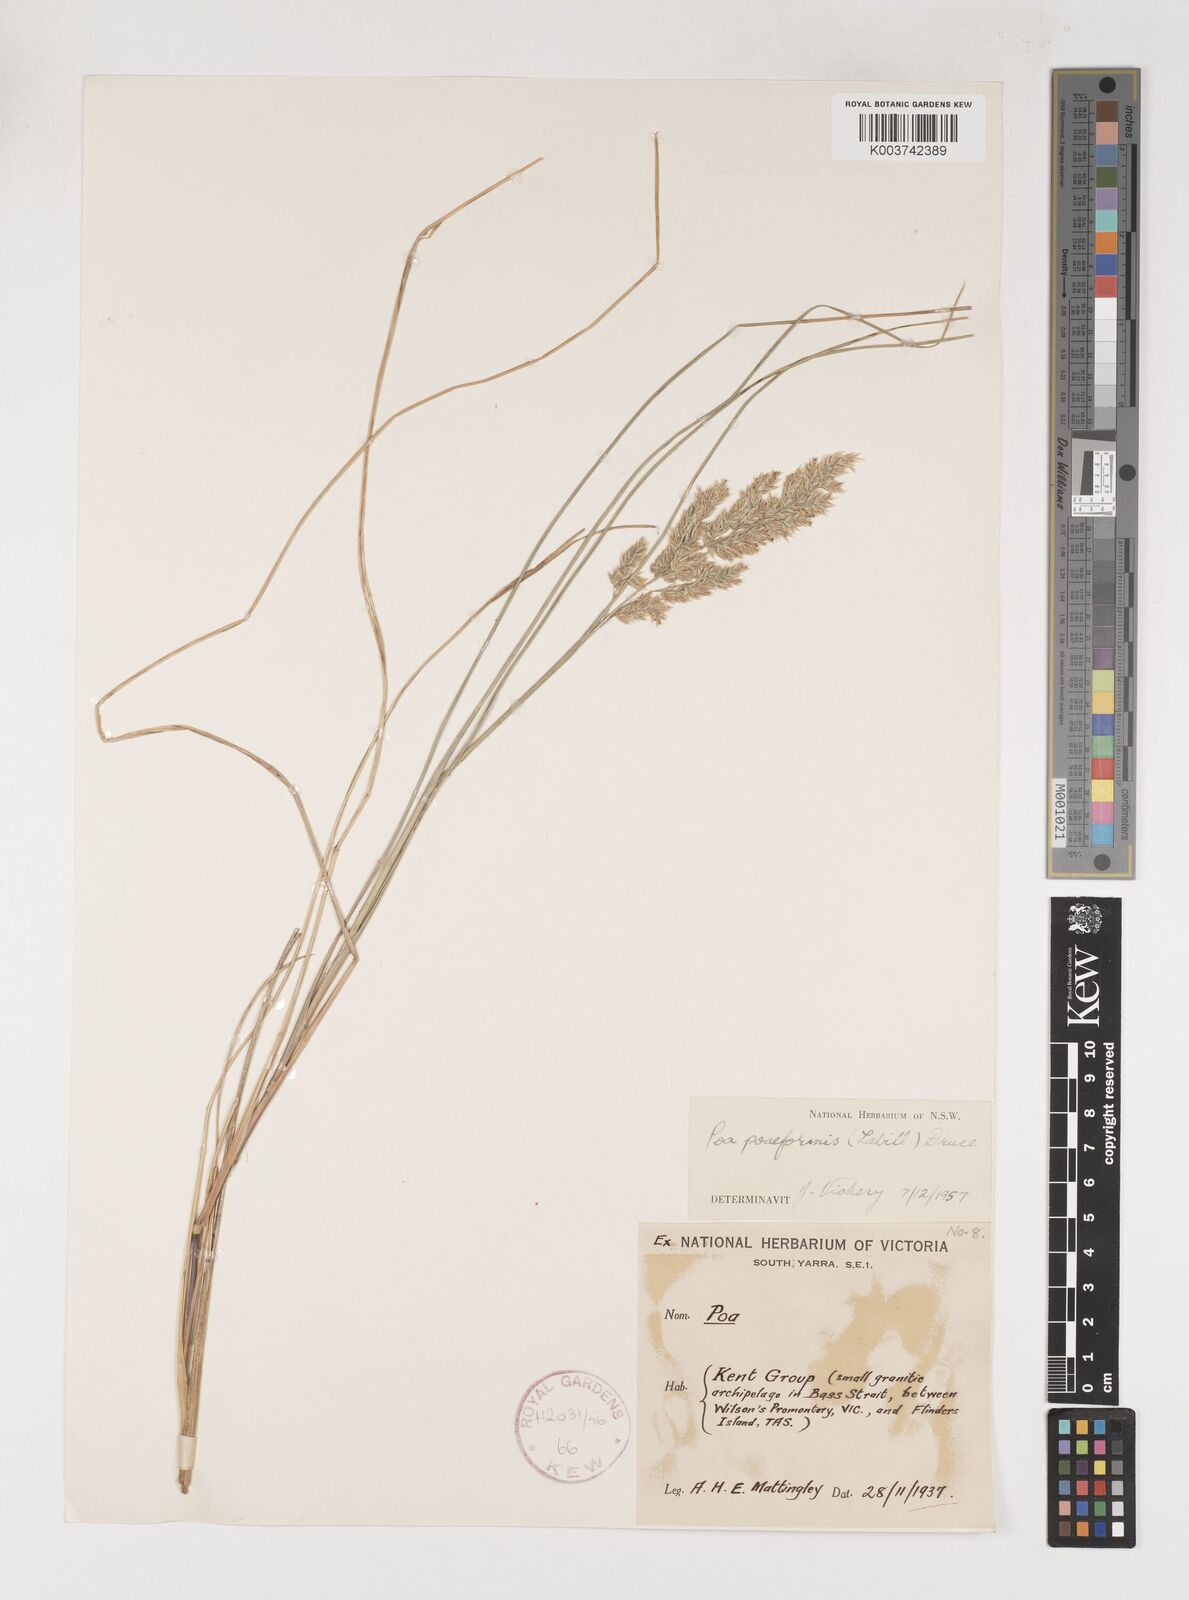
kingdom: Plantae
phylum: Tracheophyta
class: Liliopsida
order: Poales
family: Poaceae
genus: Poa
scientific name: Poa poiformis
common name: Tussock poa
